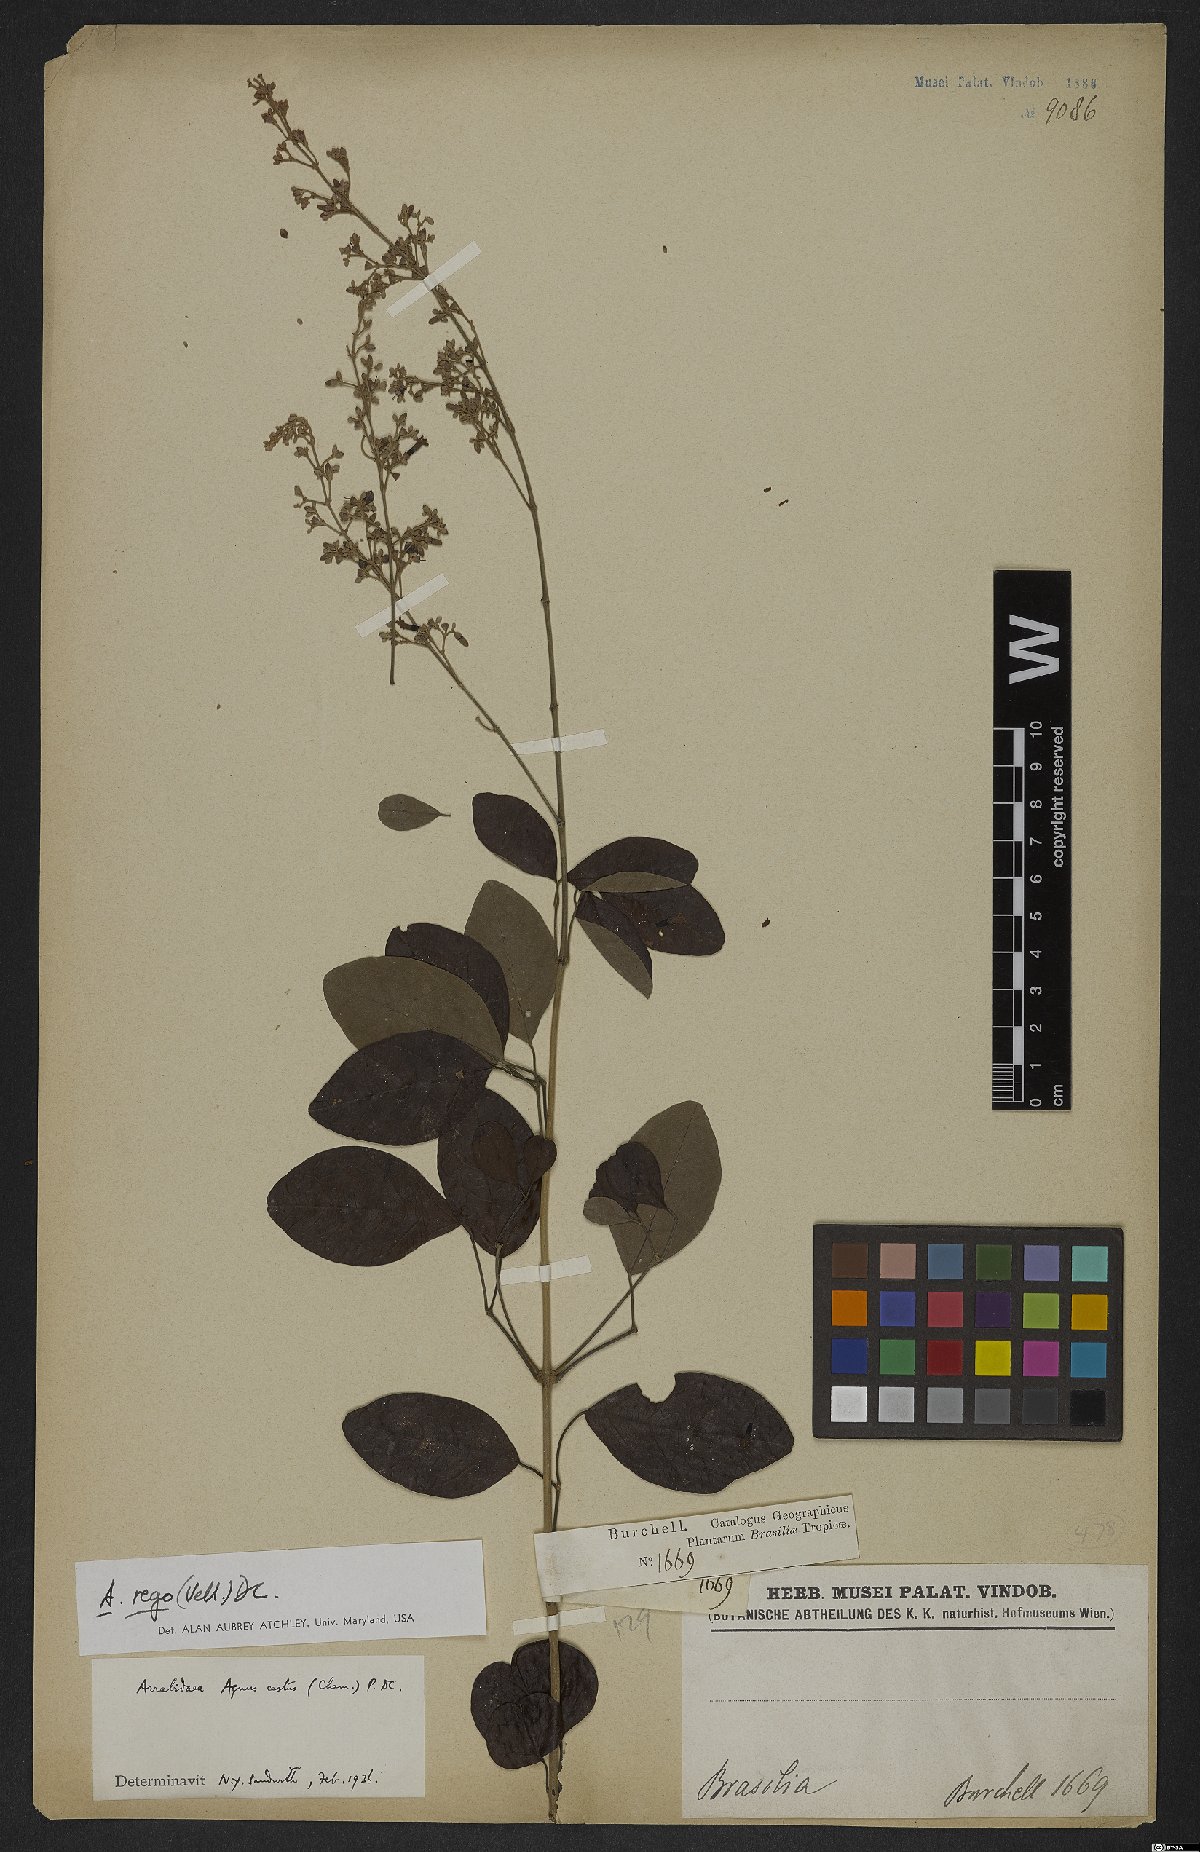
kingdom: Plantae
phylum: Tracheophyta
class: Magnoliopsida
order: Lamiales
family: Bignoniaceae
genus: Fridericia
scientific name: Fridericia rego
